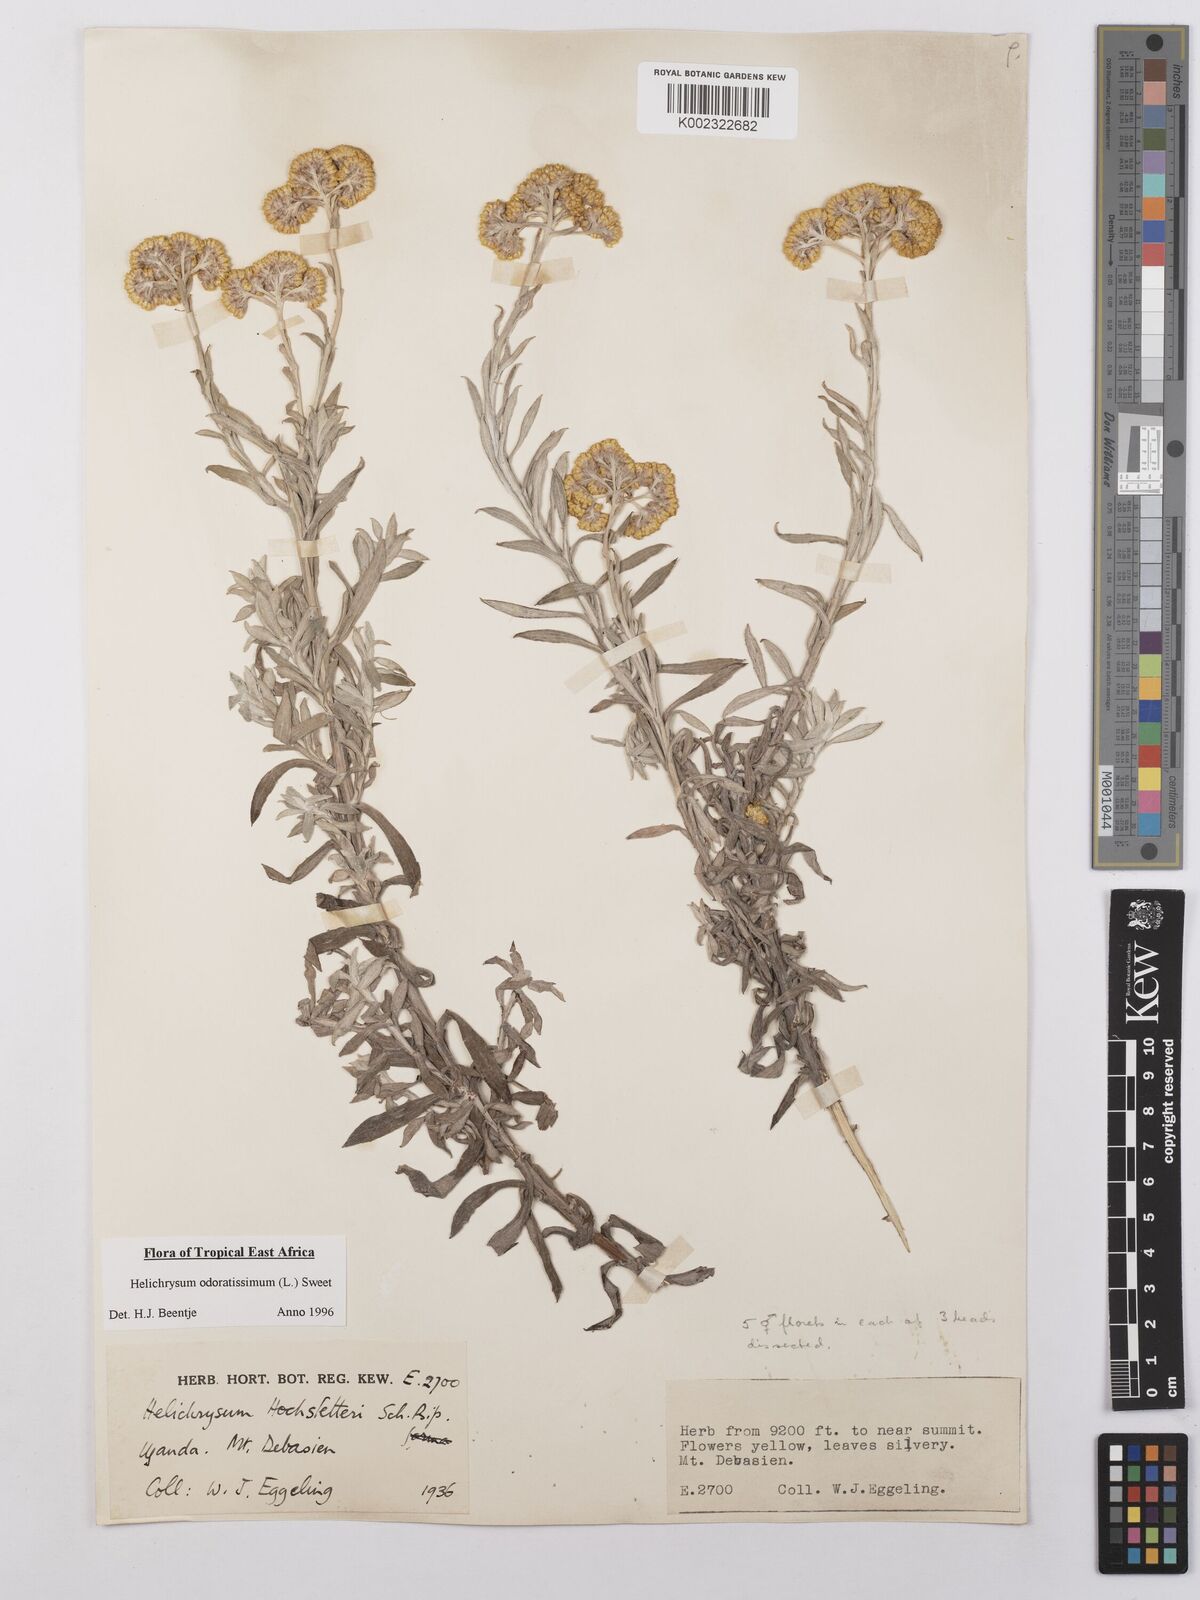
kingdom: Plantae
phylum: Tracheophyta
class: Magnoliopsida
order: Asterales
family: Asteraceae
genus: Helichrysum
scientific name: Helichrysum odoratissimum
